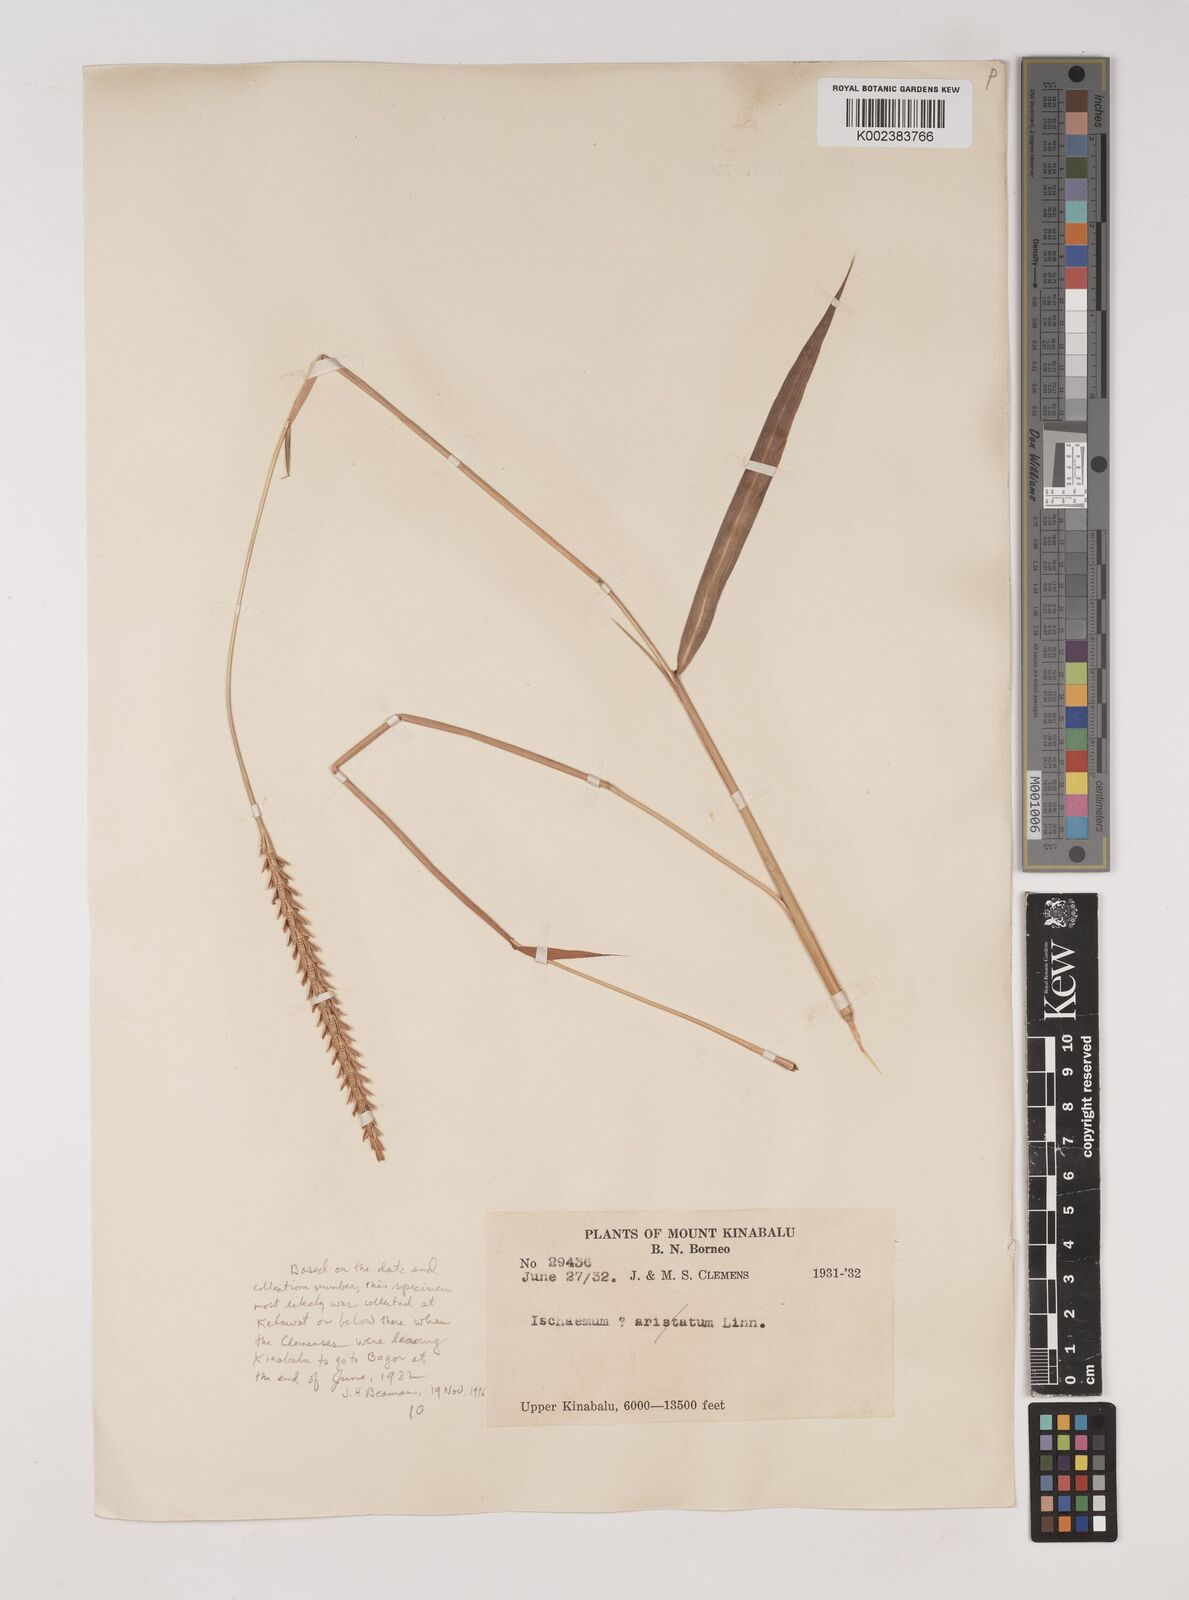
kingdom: Plantae
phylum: Tracheophyta
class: Liliopsida
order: Poales
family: Poaceae
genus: Polytrias
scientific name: Polytrias indica
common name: Indian murainagrass
